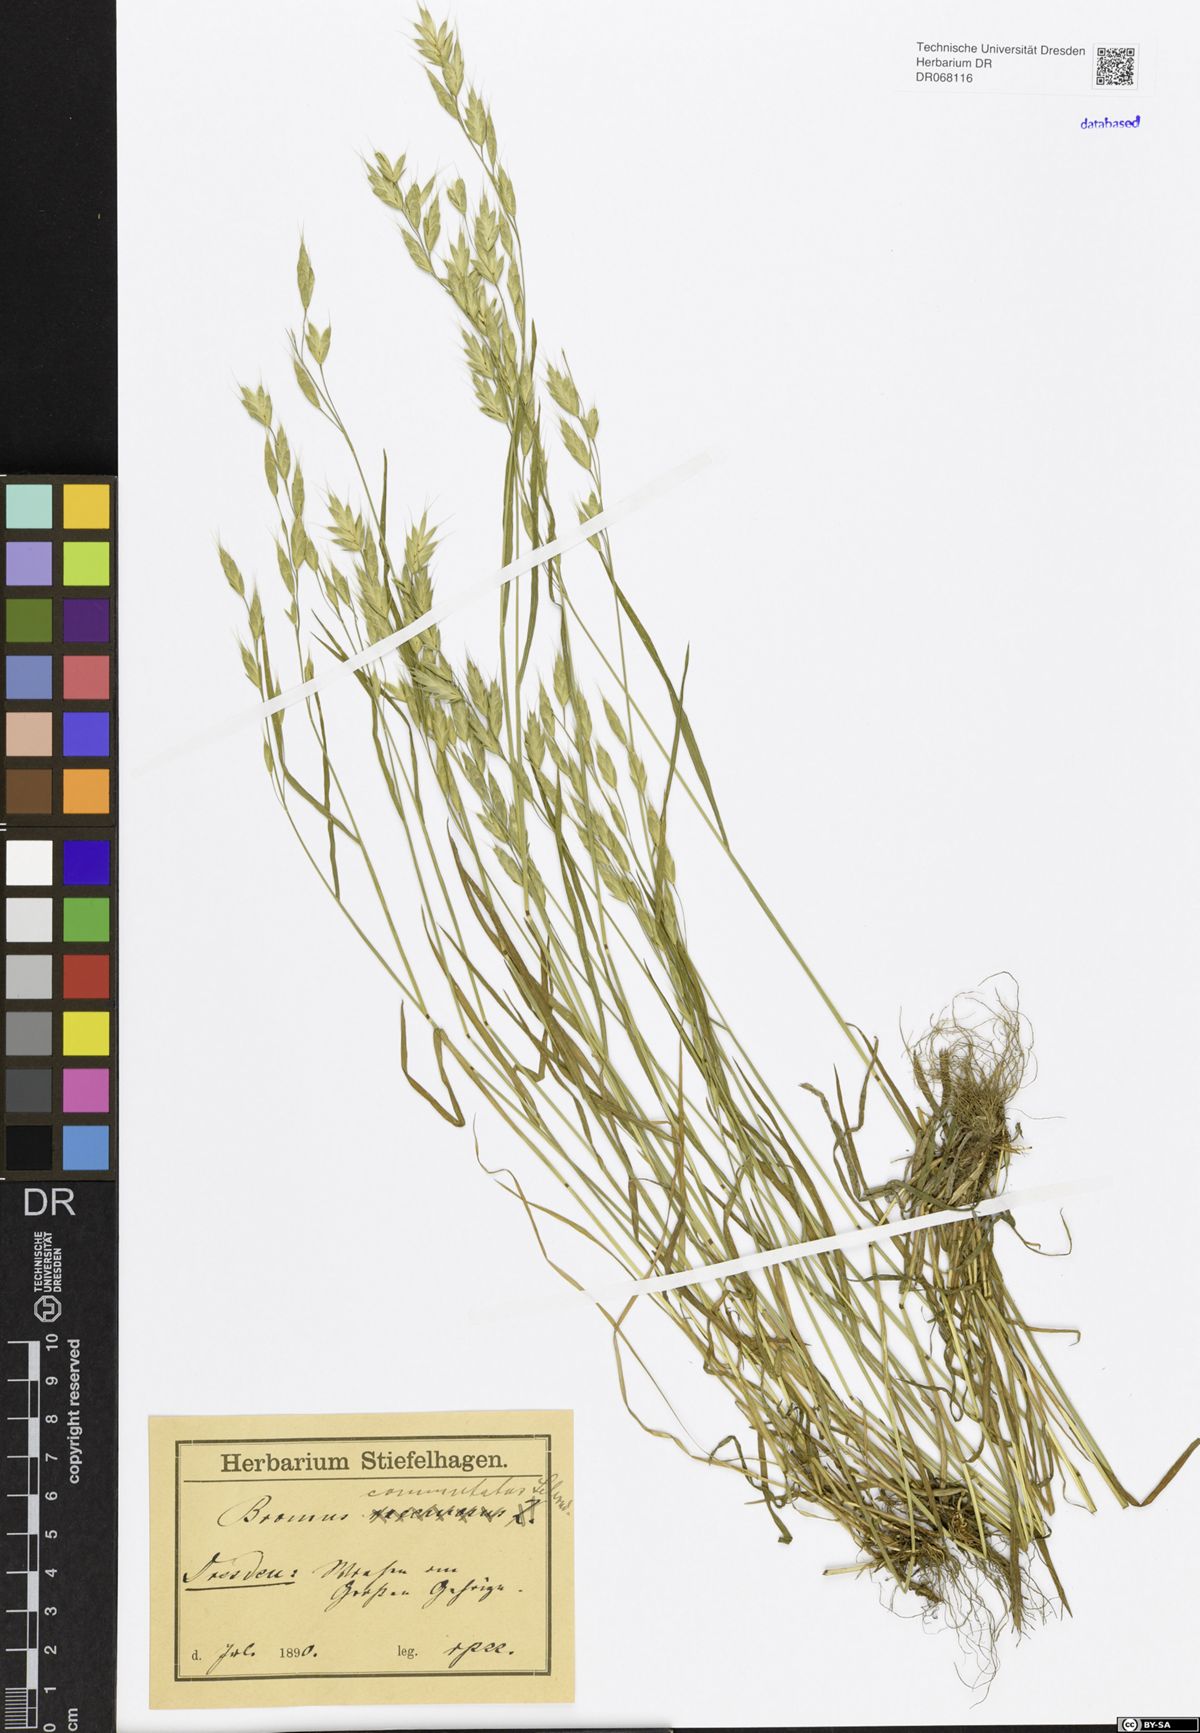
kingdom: Plantae
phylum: Tracheophyta
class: Liliopsida
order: Poales
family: Poaceae
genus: Bromus
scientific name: Bromus commutatus
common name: Meadow brome
